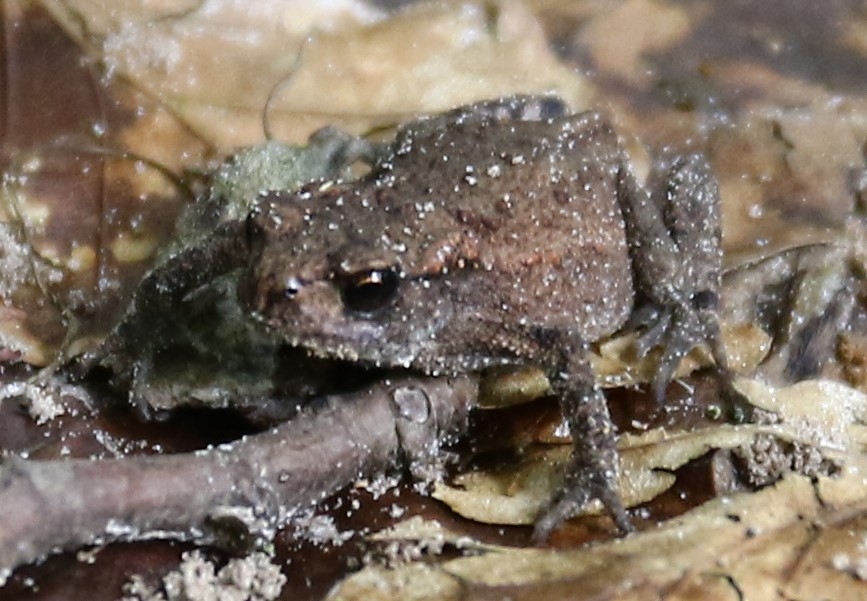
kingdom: Animalia
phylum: Chordata
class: Amphibia
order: Anura
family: Bufonidae
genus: Bufo
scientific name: Bufo bufo
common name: Skrubtudse
